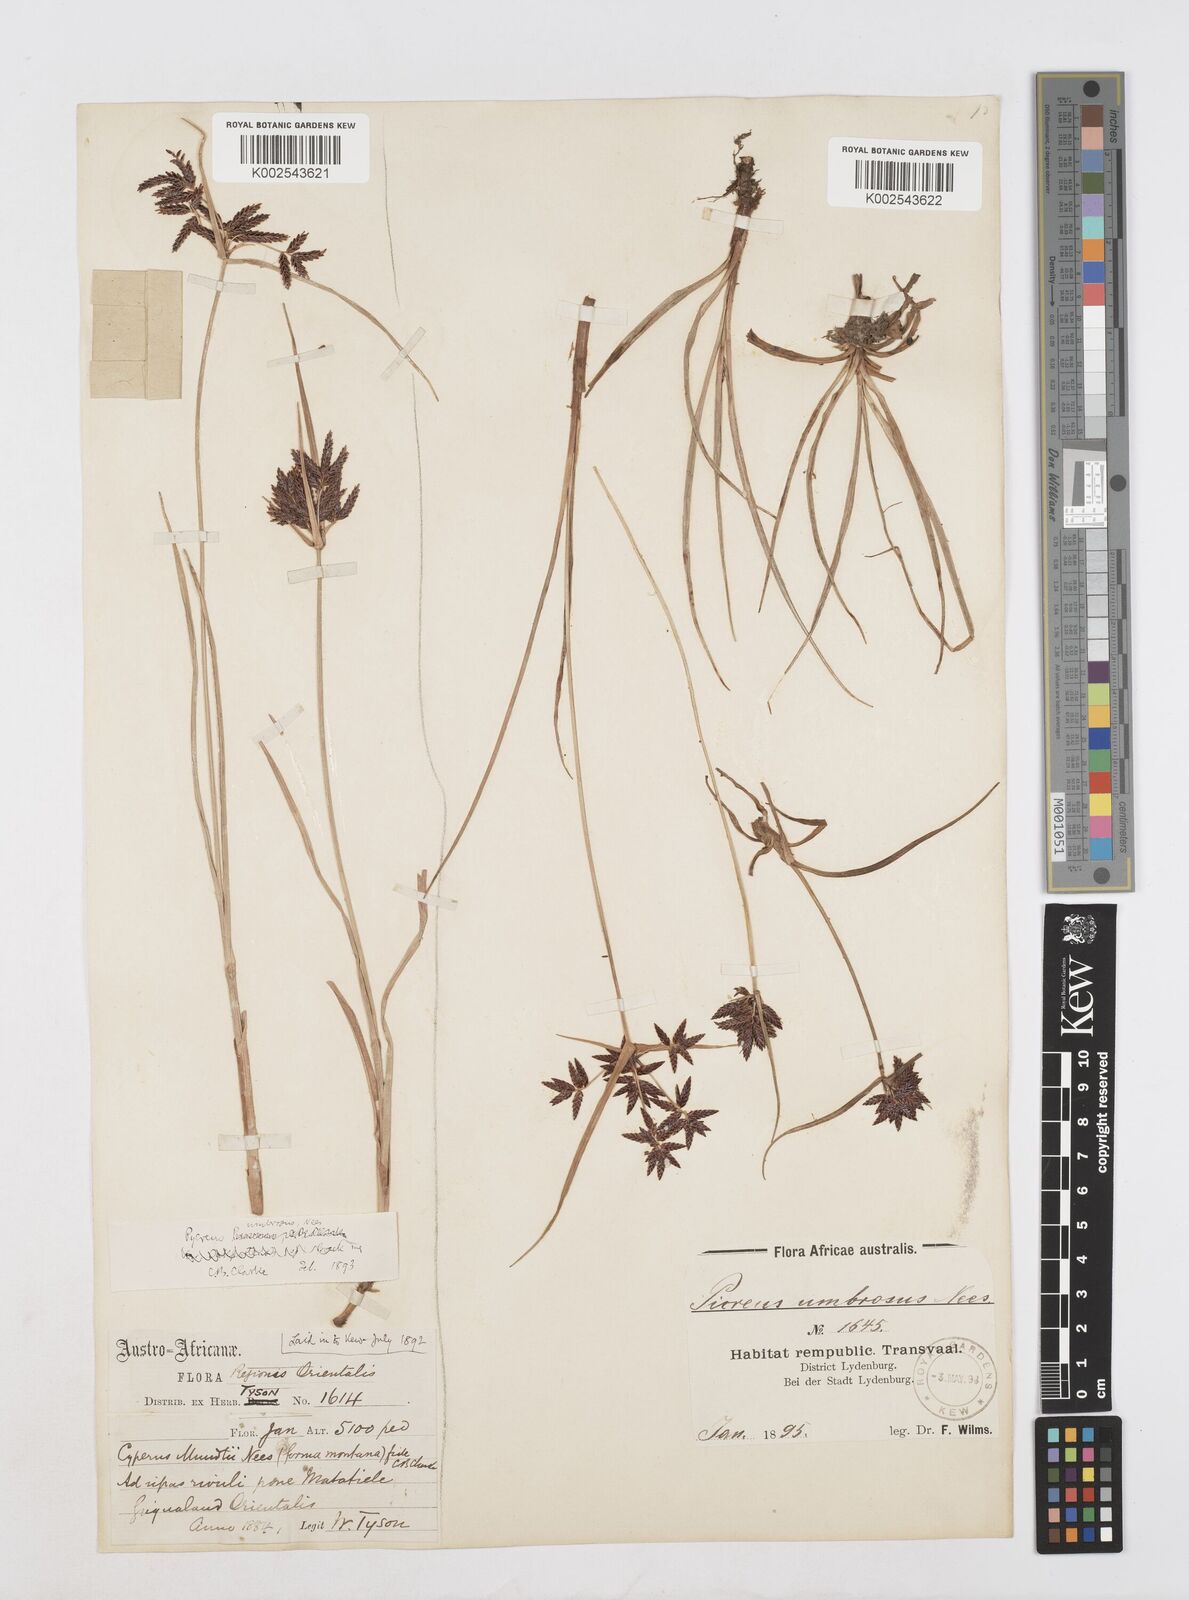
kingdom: Plantae
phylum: Tracheophyta
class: Liliopsida
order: Poales
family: Cyperaceae
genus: Cyperus
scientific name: Cyperus nitidus
